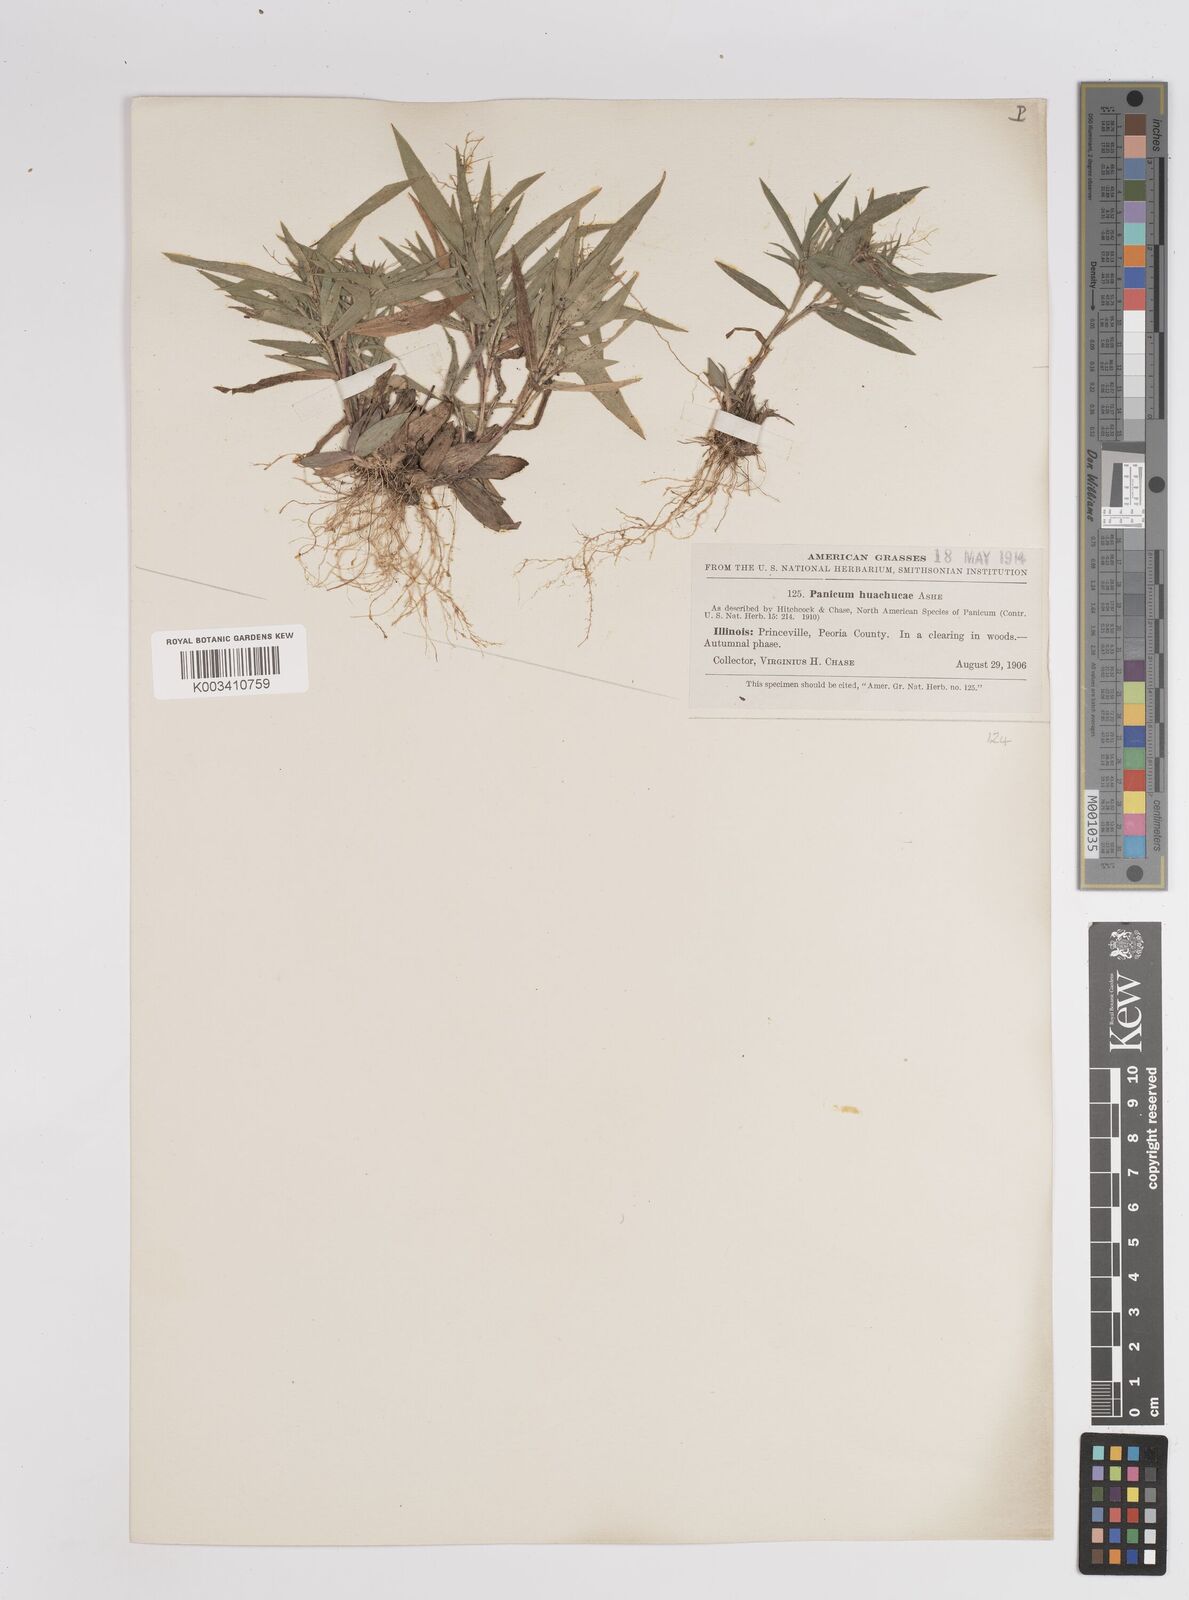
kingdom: Plantae
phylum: Tracheophyta
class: Liliopsida
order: Poales
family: Poaceae
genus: Dichanthelium
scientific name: Dichanthelium acuminatum
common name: Hairy panic grass
